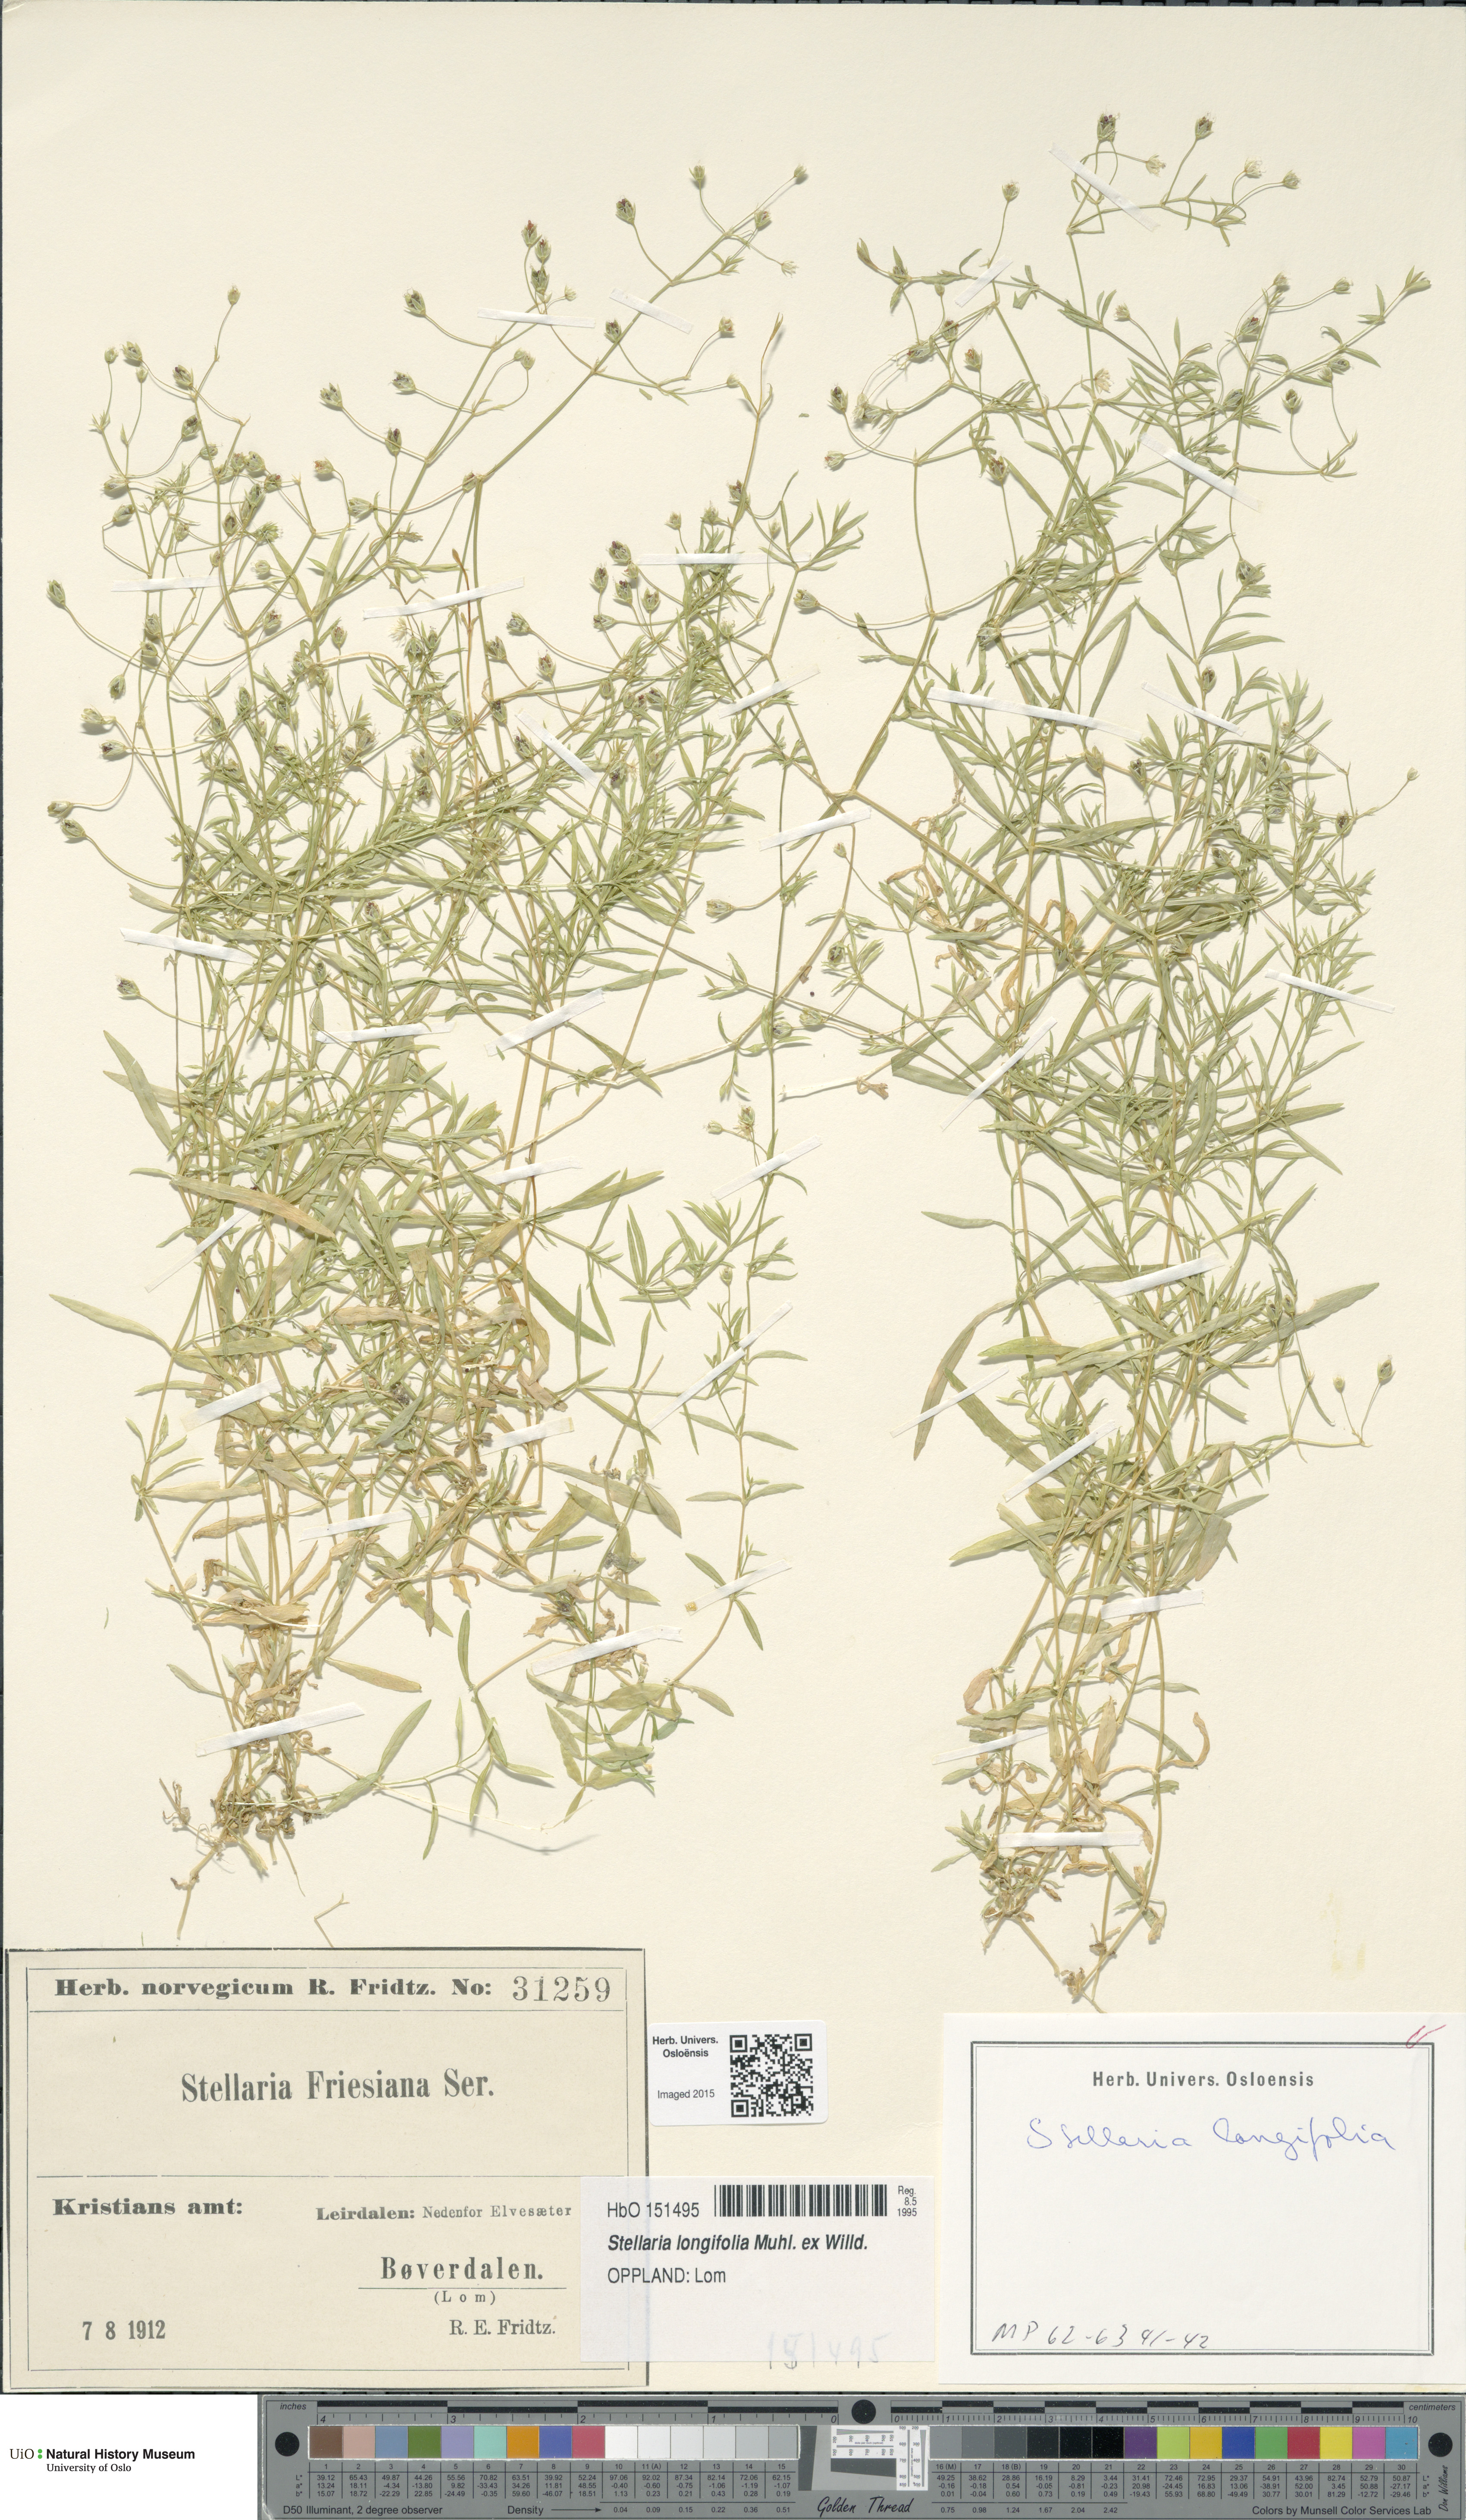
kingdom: Plantae
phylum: Tracheophyta
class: Magnoliopsida
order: Caryophyllales
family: Caryophyllaceae
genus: Stellaria
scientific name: Stellaria longifolia
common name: Long-leaved chickweed
